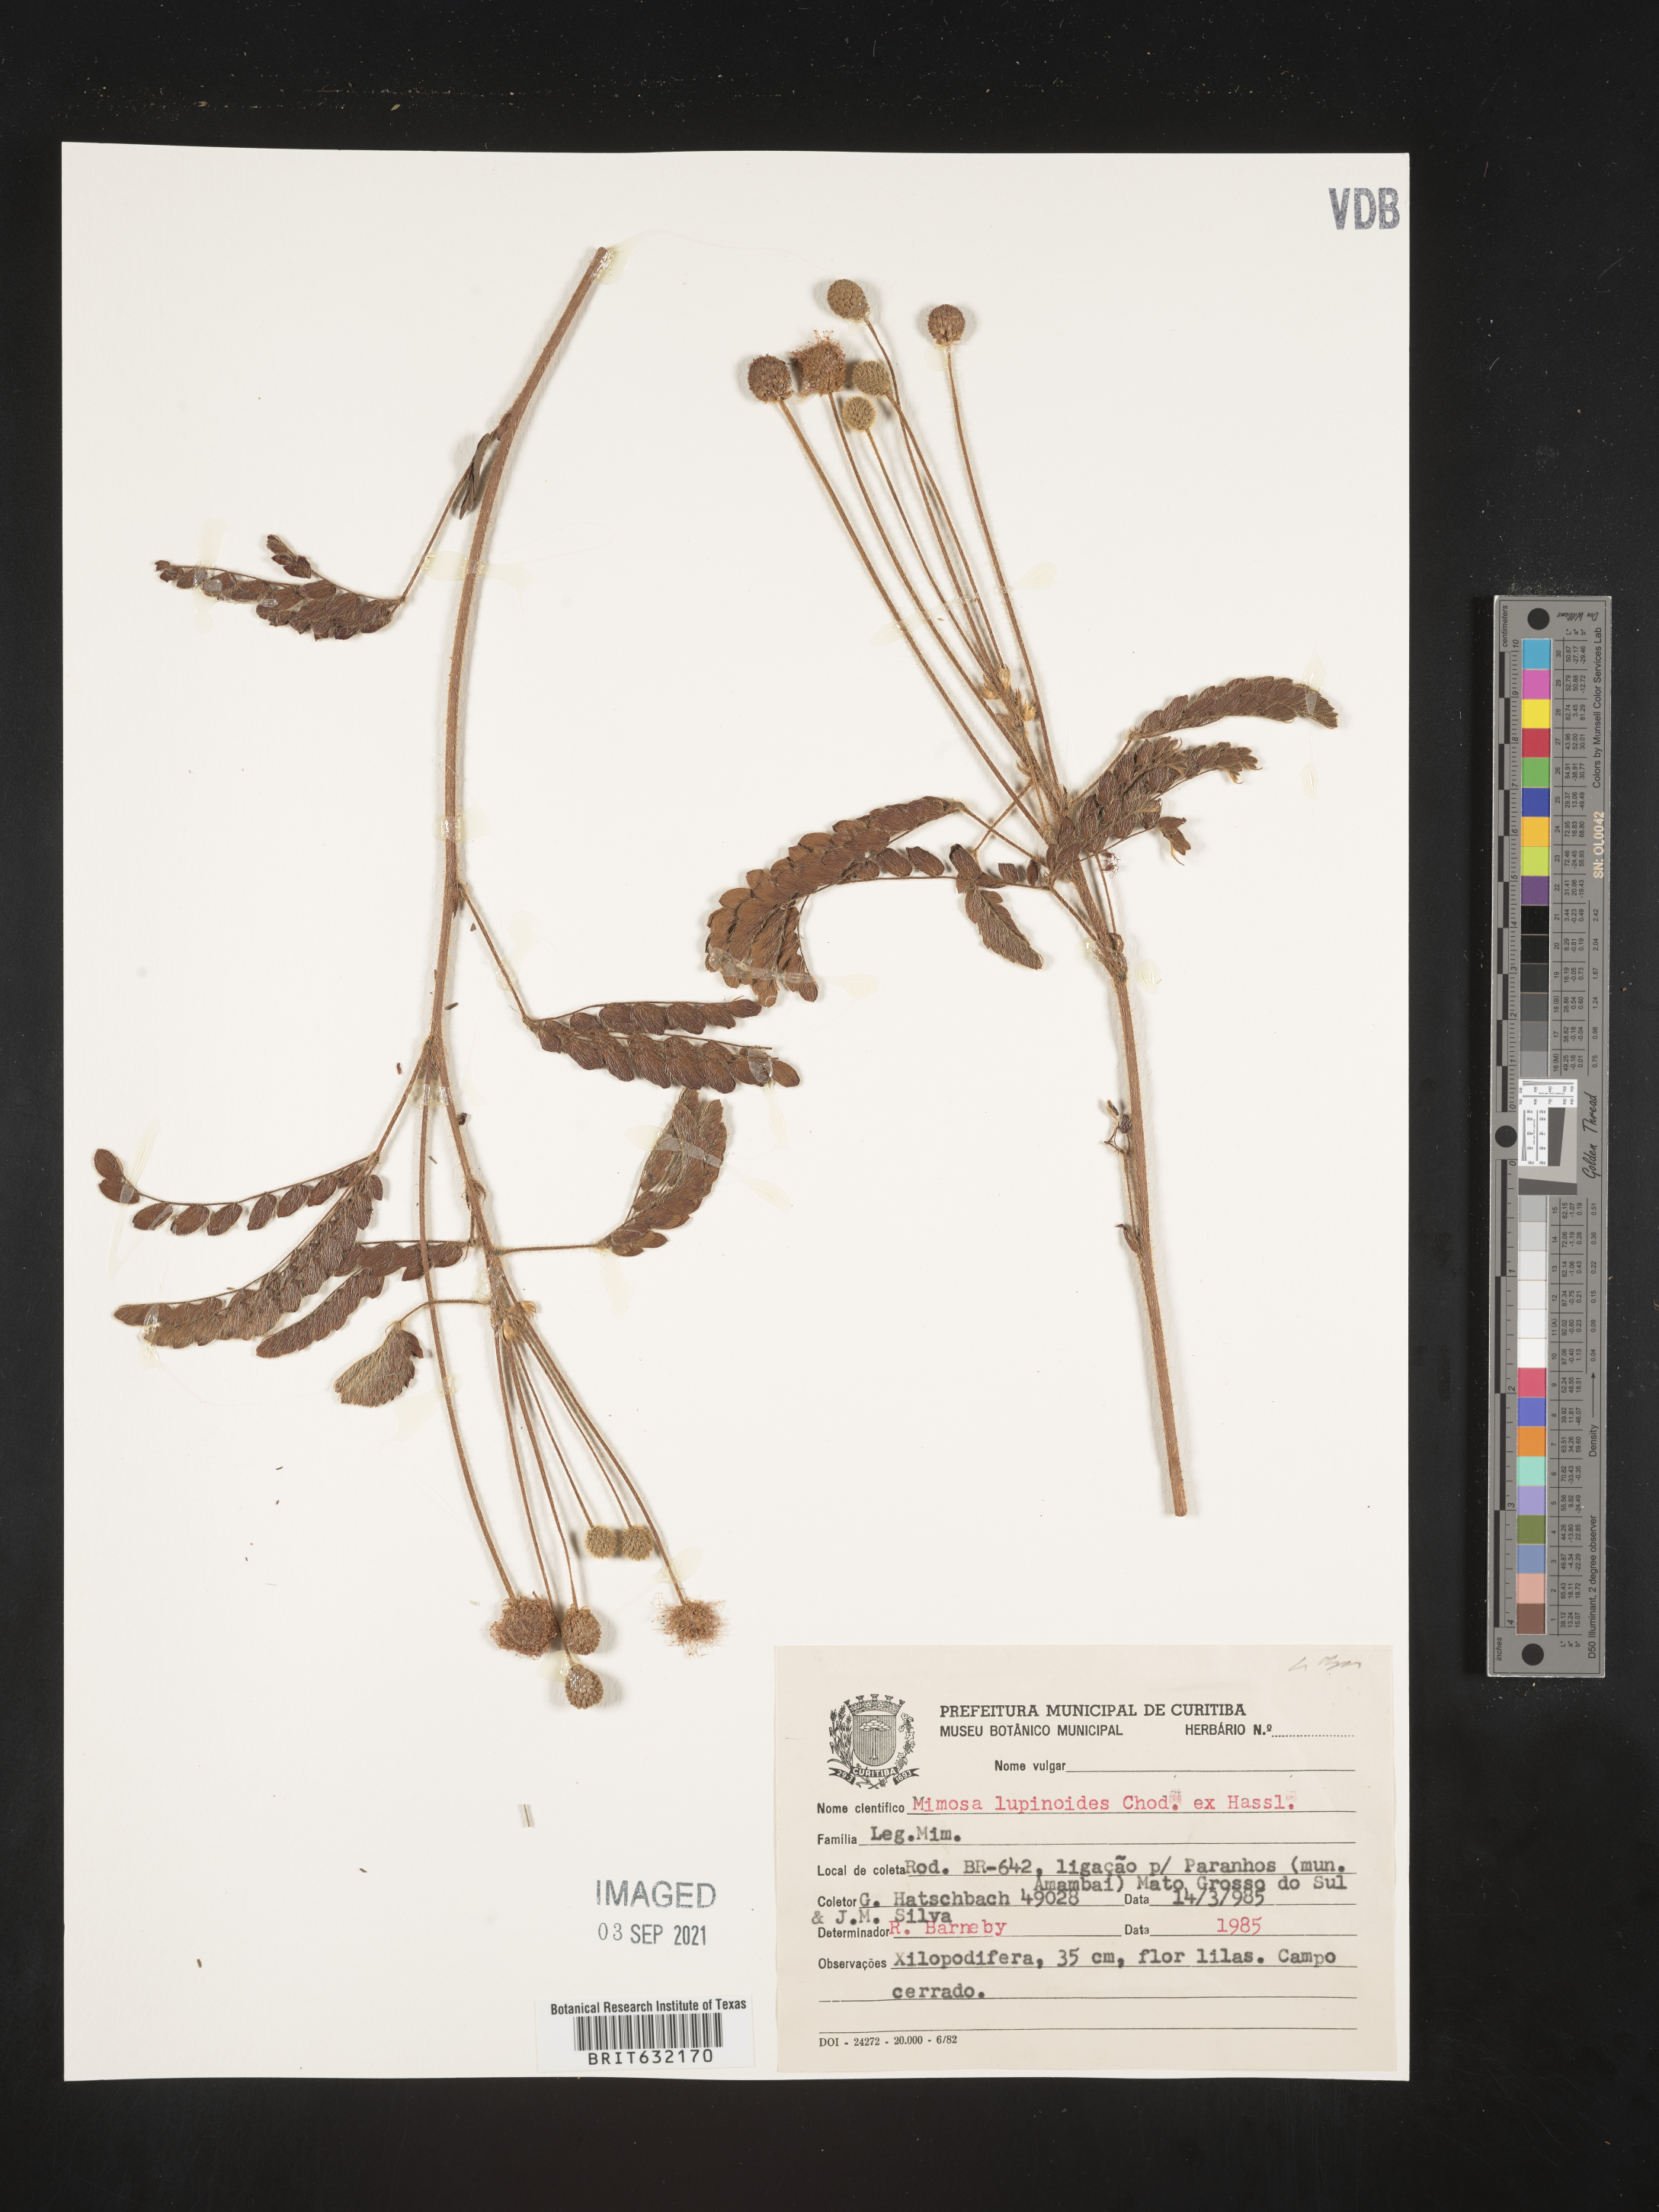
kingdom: Plantae
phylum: Tracheophyta
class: Magnoliopsida
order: Fabales
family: Fabaceae
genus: Mimosa
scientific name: Mimosa
